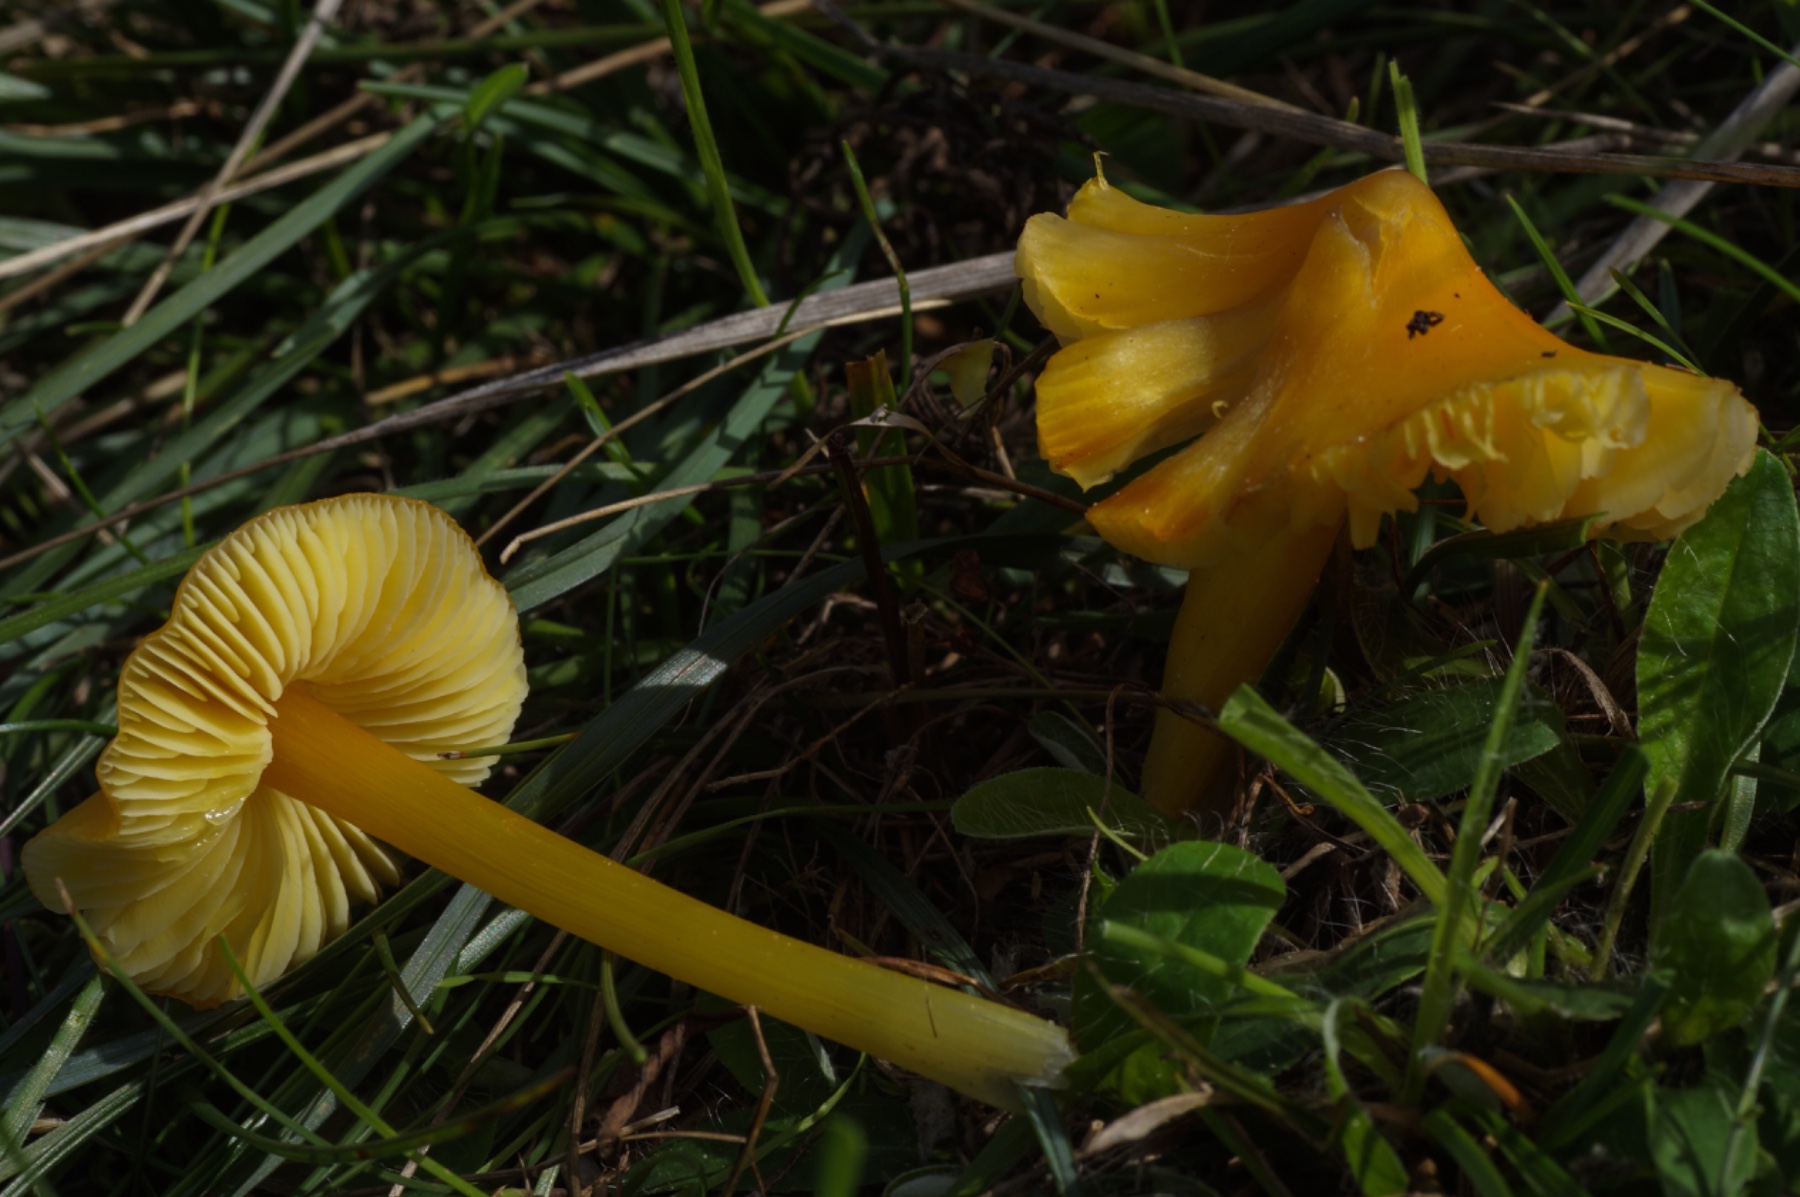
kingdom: Fungi
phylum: Basidiomycota
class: Agaricomycetes
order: Agaricales
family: Hygrophoraceae
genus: Hygrocybe
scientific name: Hygrocybe acutoconica
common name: spidspuklet vokshat
